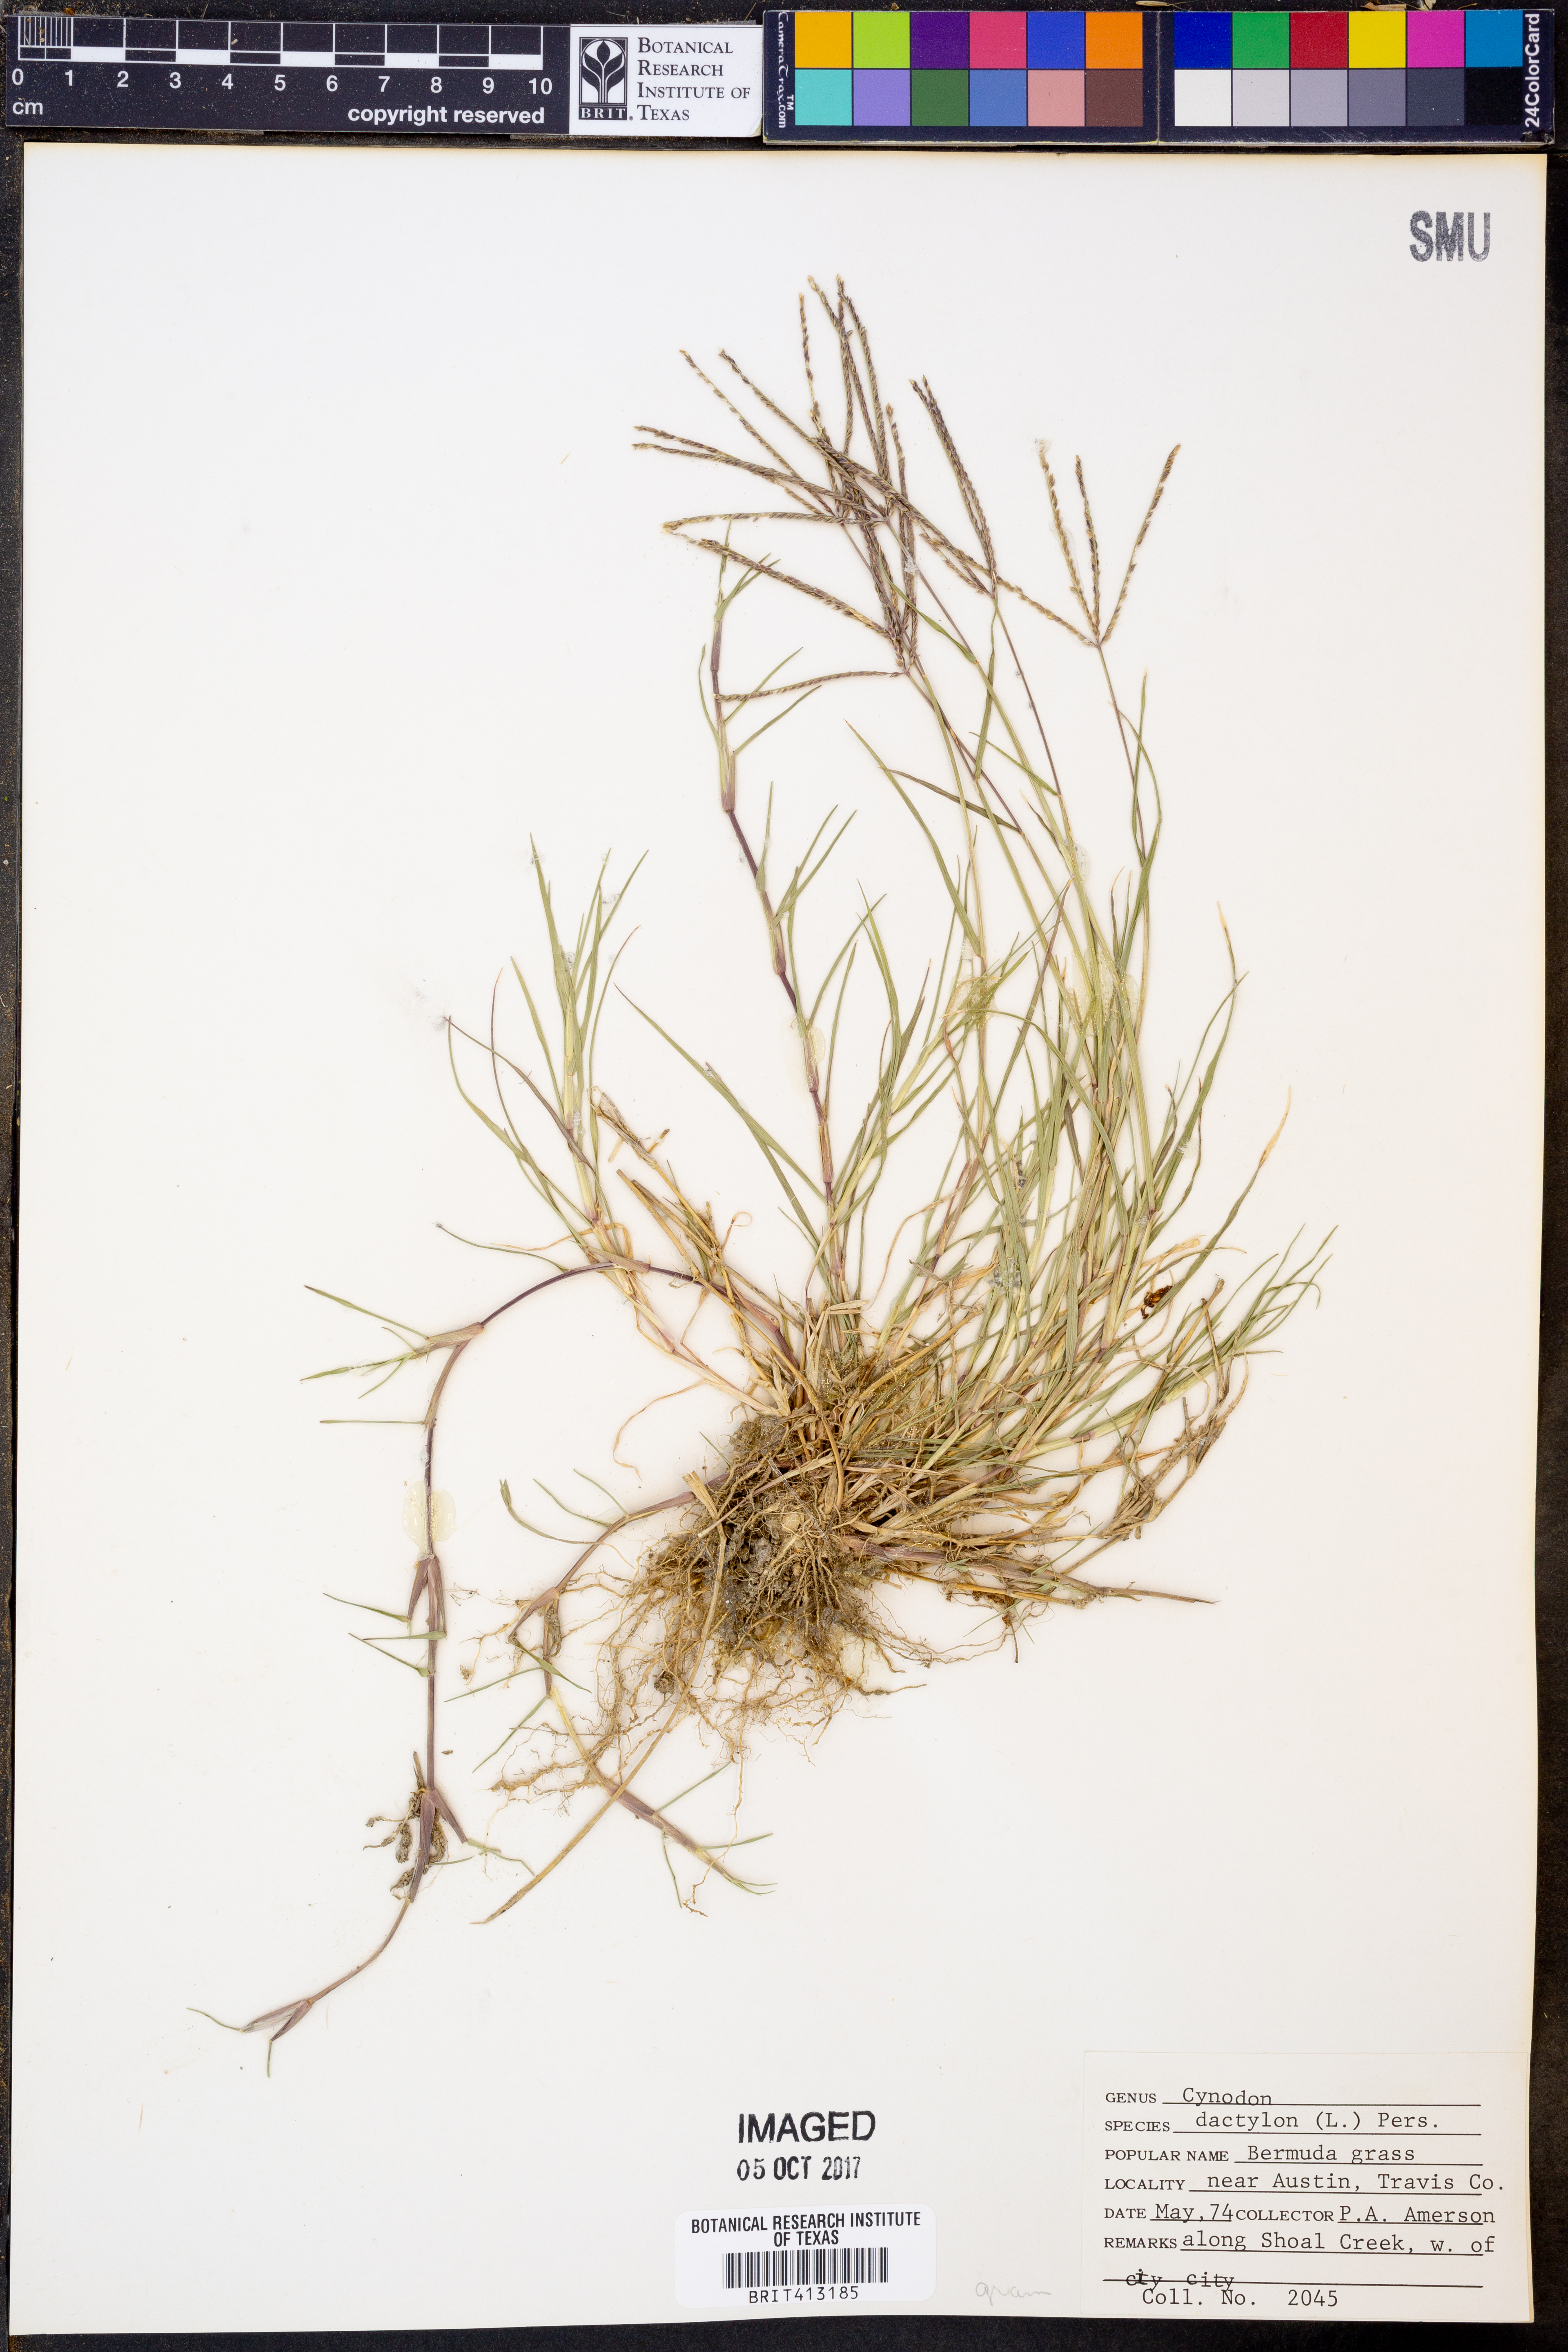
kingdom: Plantae
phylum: Tracheophyta
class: Liliopsida
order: Poales
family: Poaceae
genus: Cynodon
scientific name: Cynodon dactylon
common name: Bermuda grass
